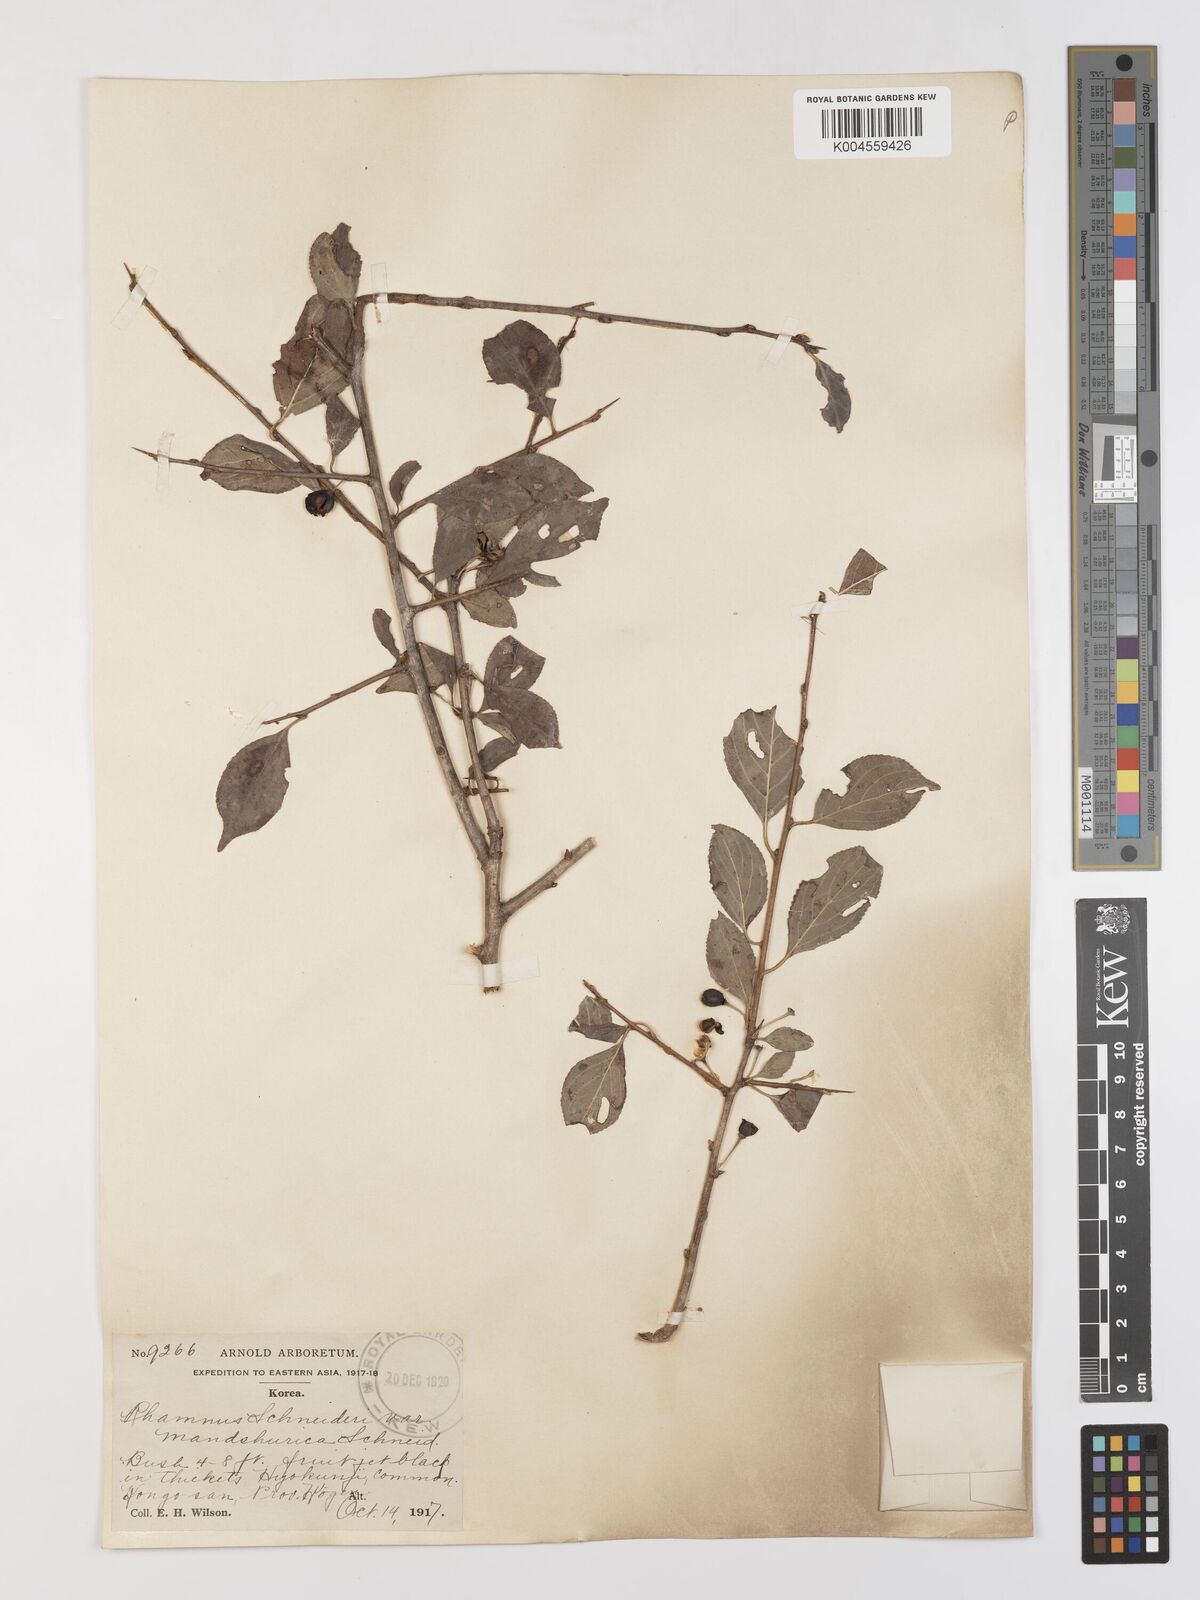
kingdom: Plantae
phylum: Tracheophyta
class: Magnoliopsida
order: Rosales
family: Rhamnaceae
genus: Rhamnus
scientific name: Rhamnus schneideri
